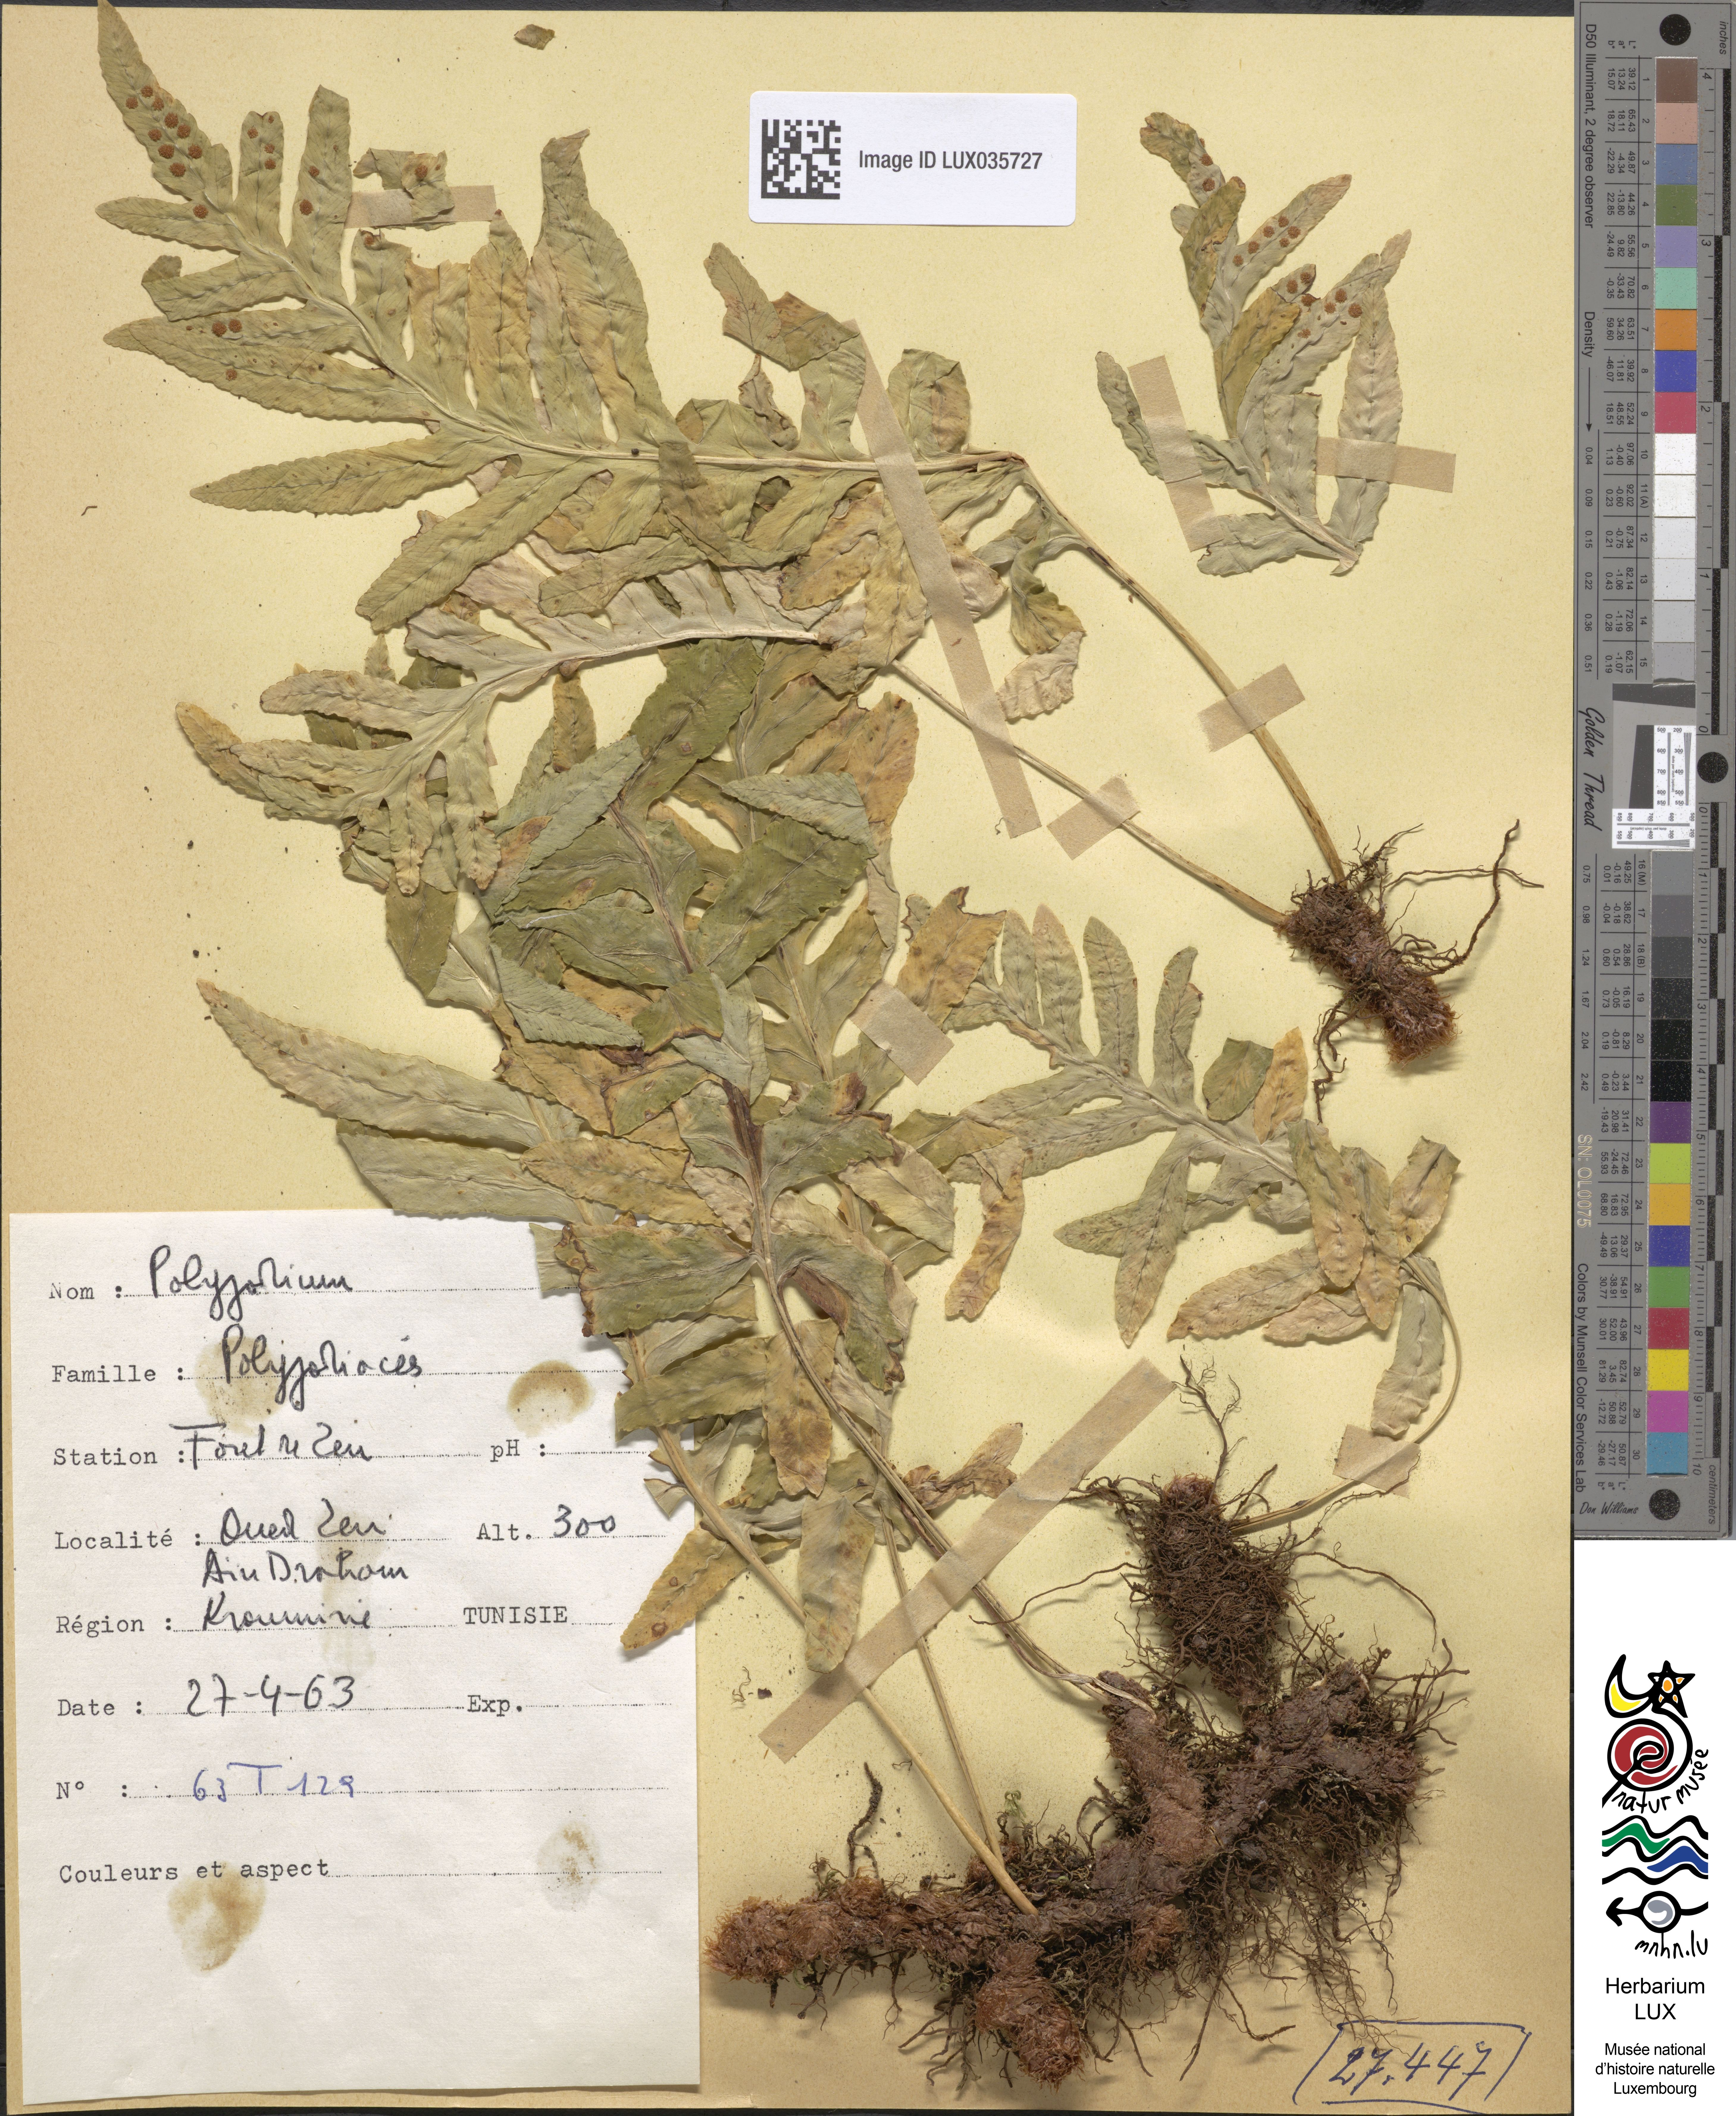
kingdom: Plantae
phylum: Tracheophyta
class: Polypodiopsida
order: Polypodiales
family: Polypodiaceae
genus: Polypodium
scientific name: Polypodium
